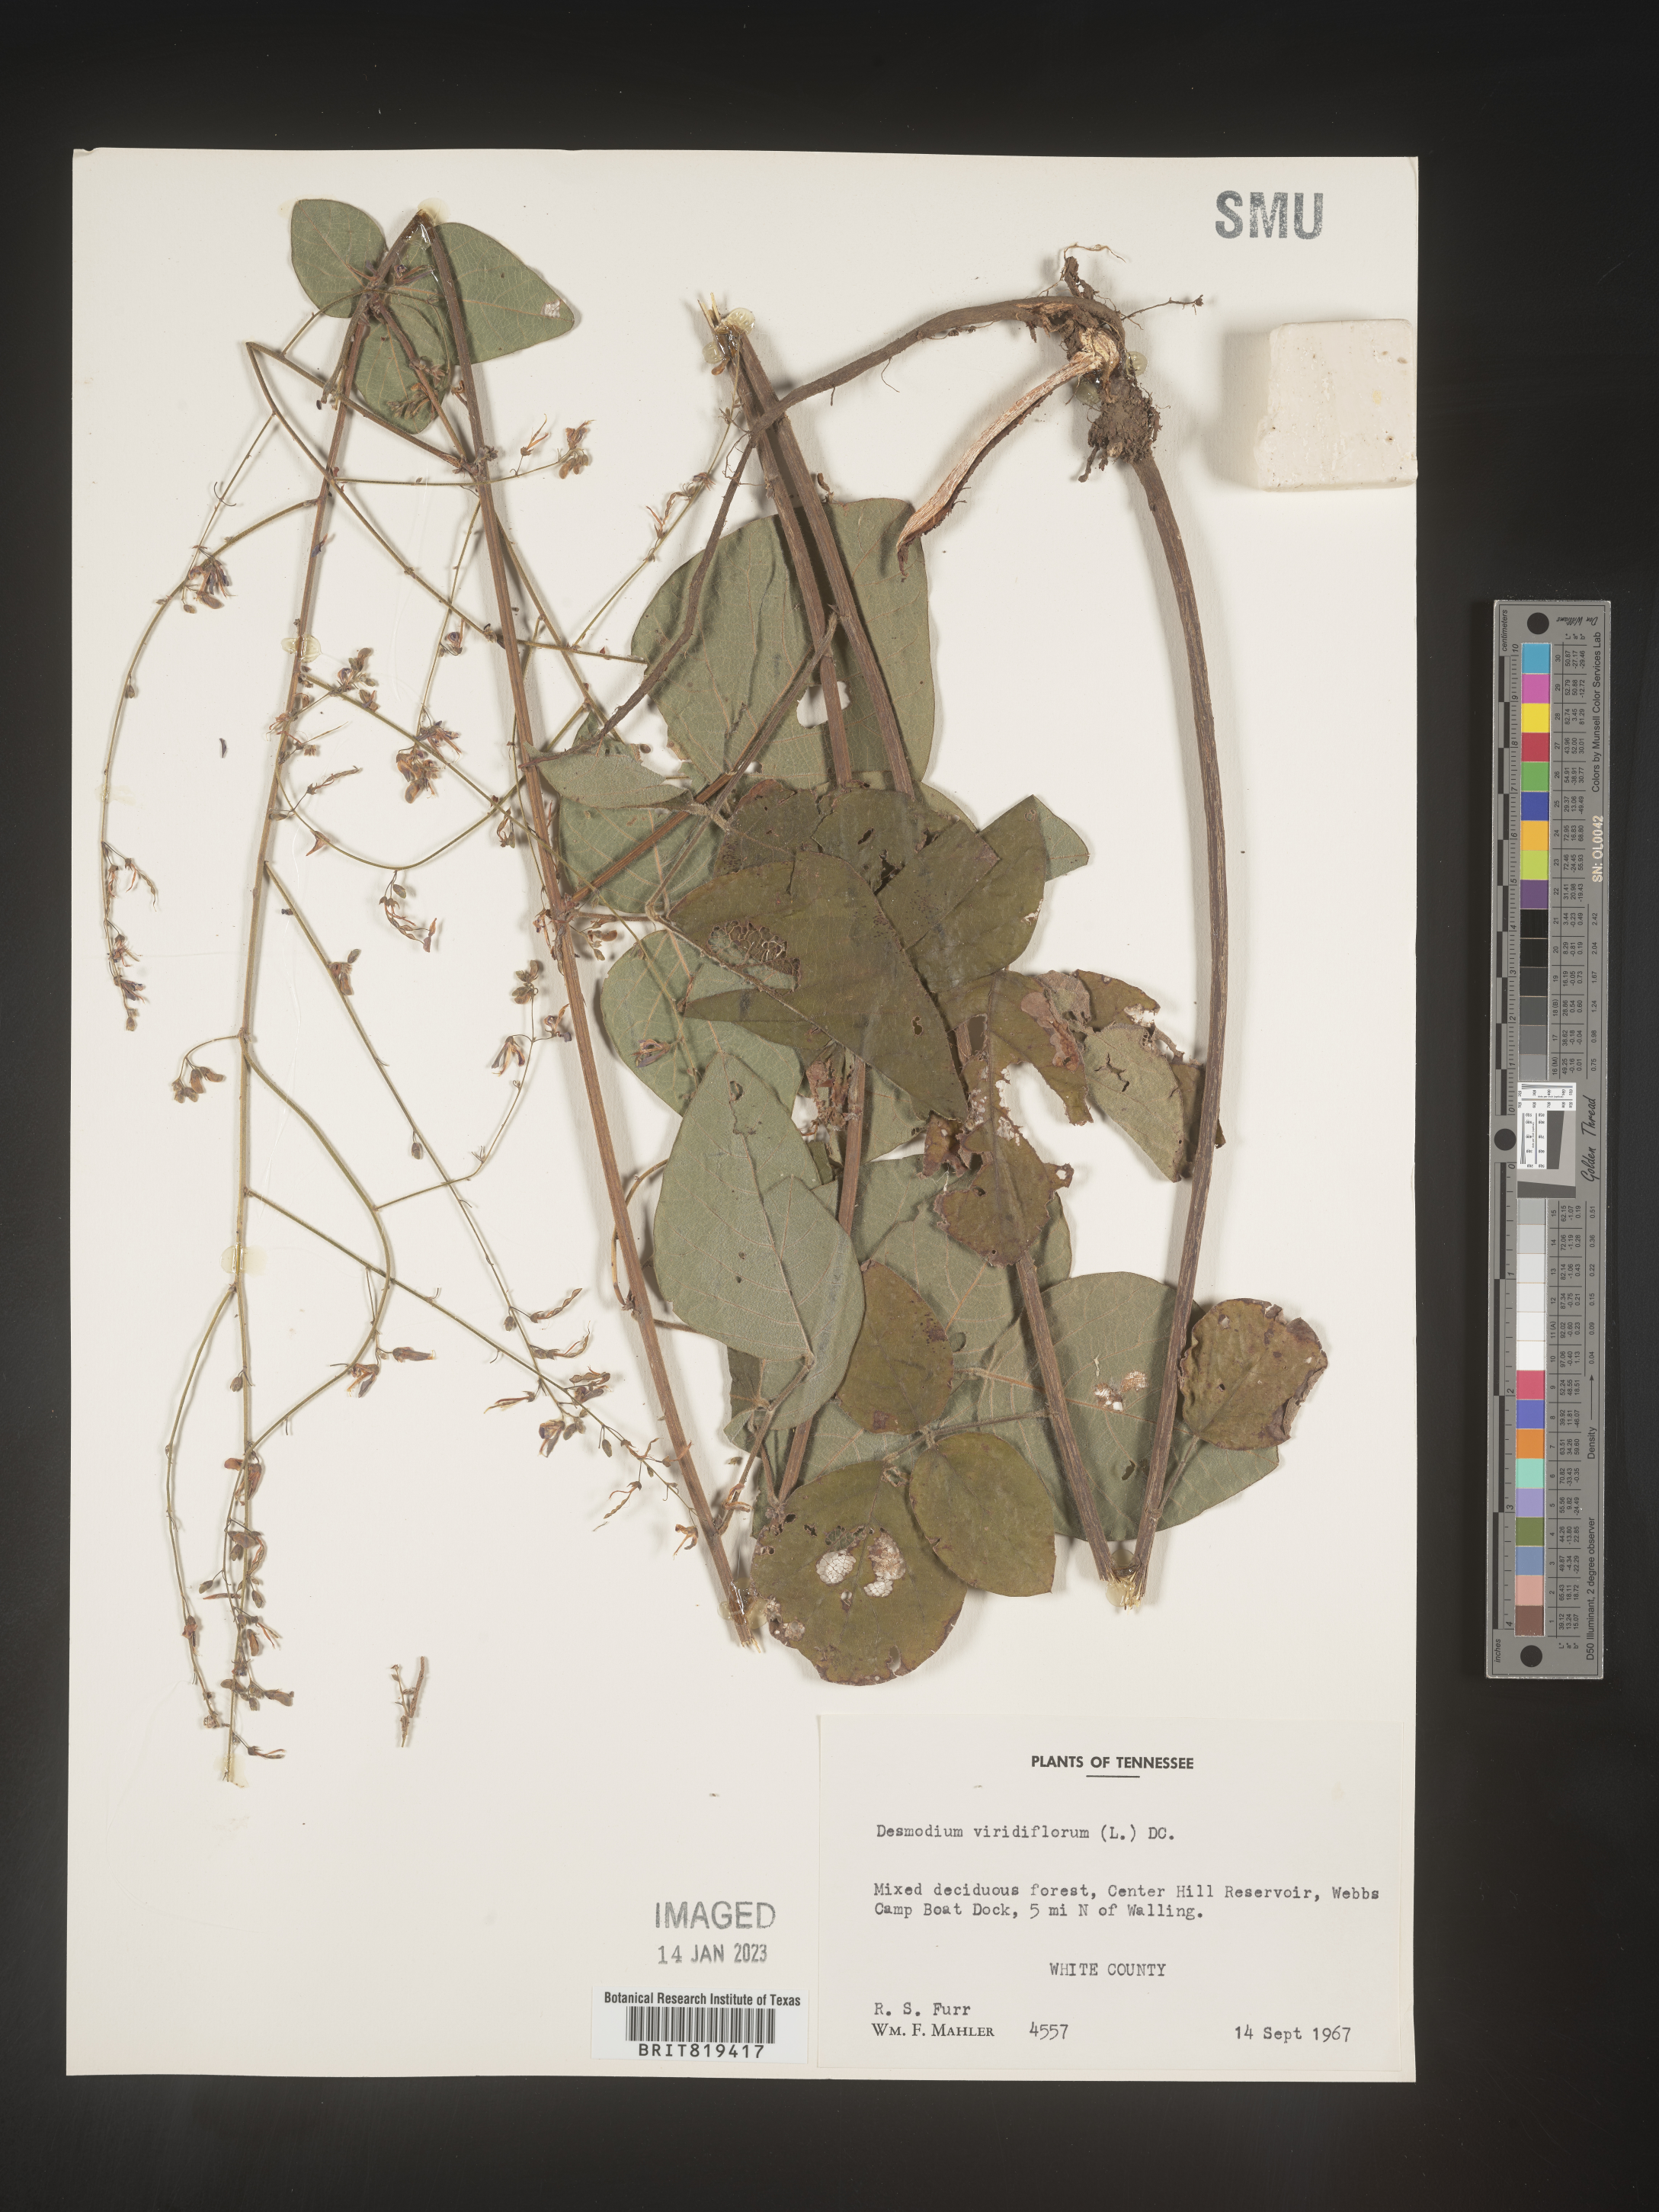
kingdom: Plantae
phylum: Tracheophyta
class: Magnoliopsida
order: Fabales
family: Fabaceae
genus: Desmodium
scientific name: Desmodium viridiflorum
